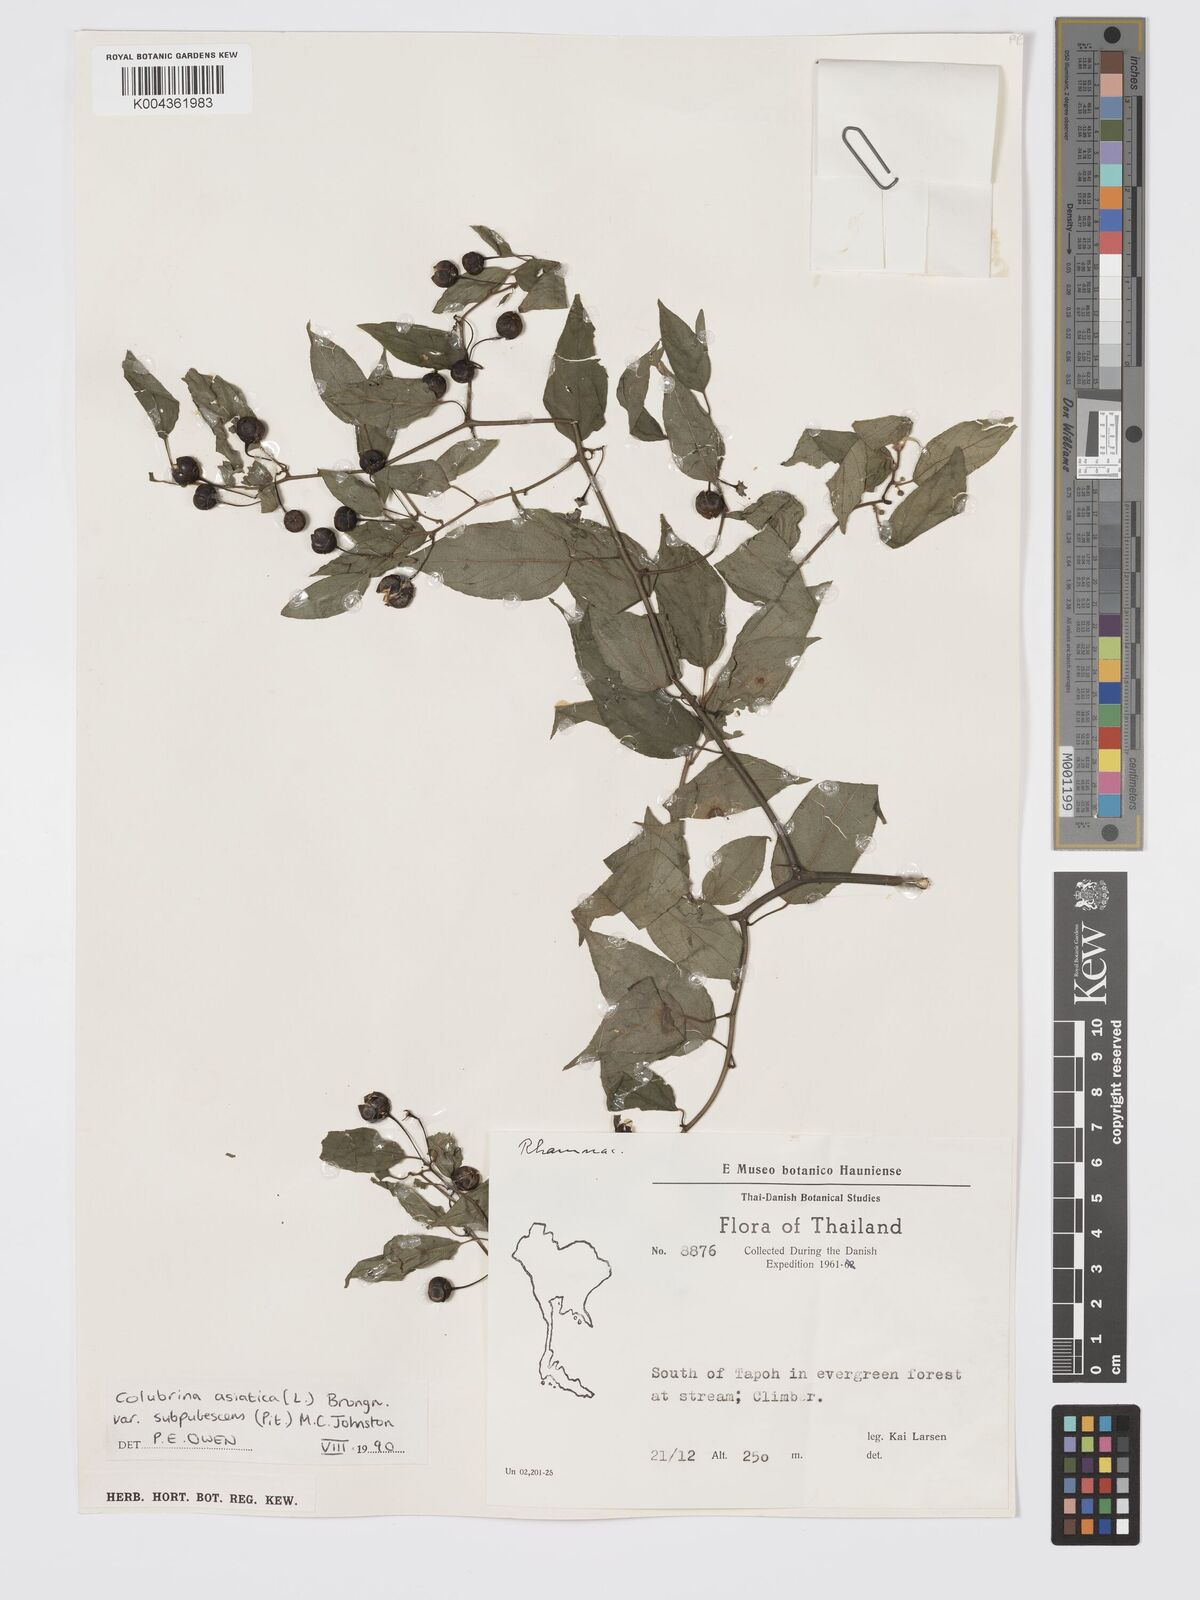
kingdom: Plantae
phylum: Tracheophyta
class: Magnoliopsida
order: Rosales
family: Rhamnaceae
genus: Colubrina
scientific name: Colubrina javanica
